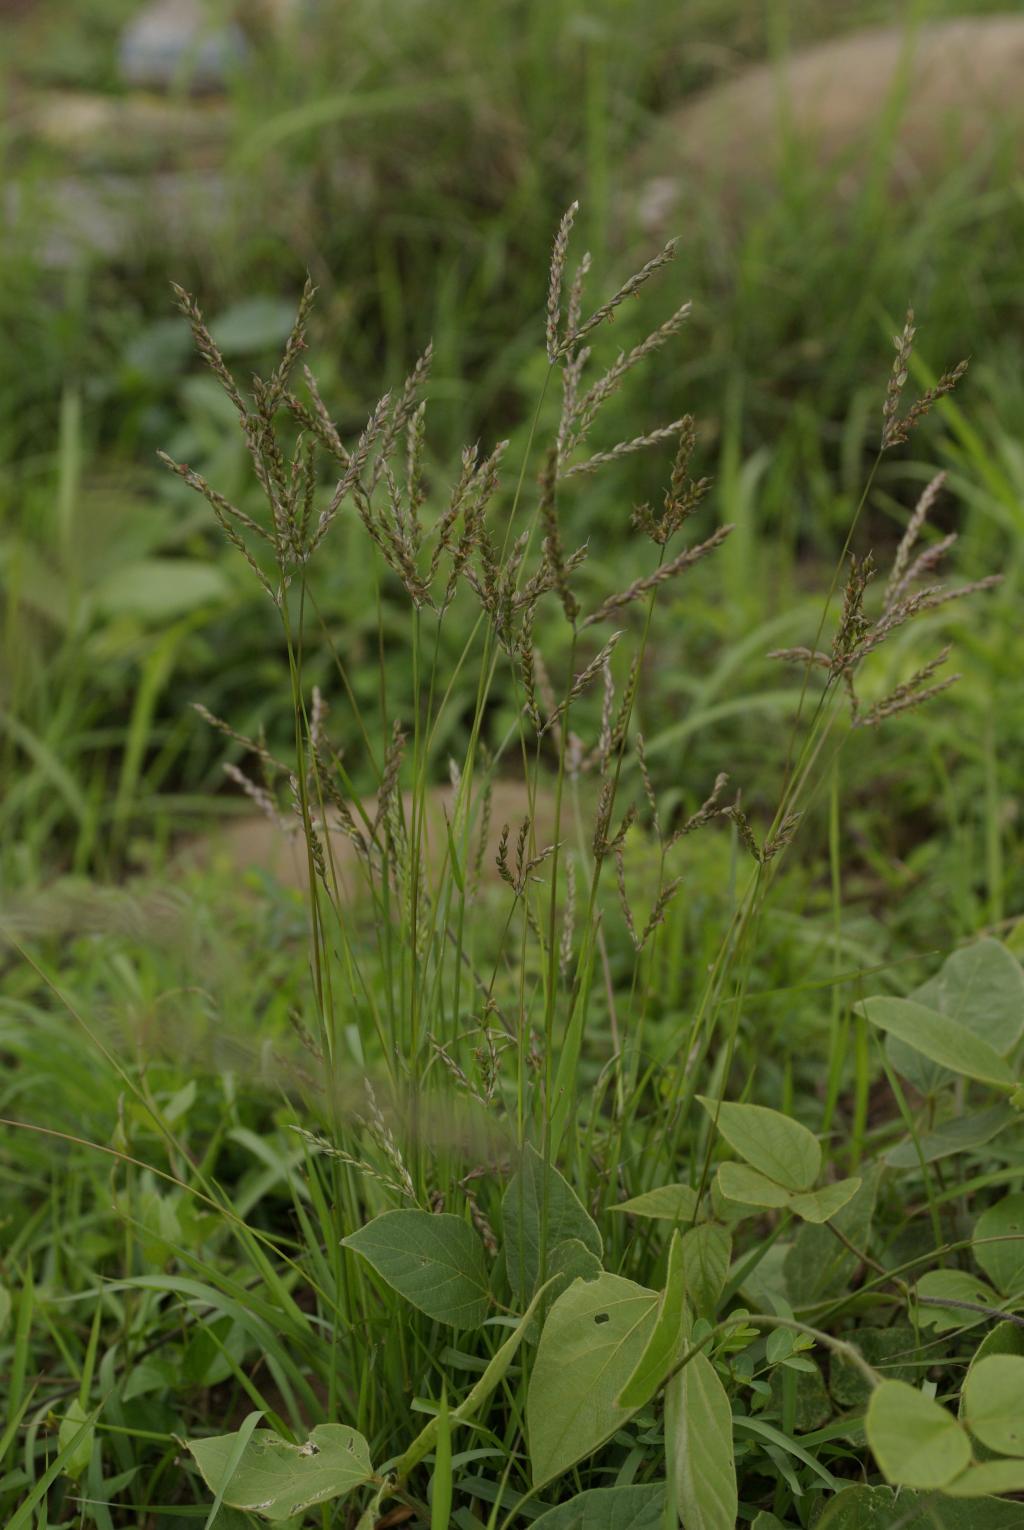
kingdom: Plantae
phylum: Tracheophyta
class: Liliopsida
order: Poales
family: Poaceae
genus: Alloteropsis
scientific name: Alloteropsis semialata
